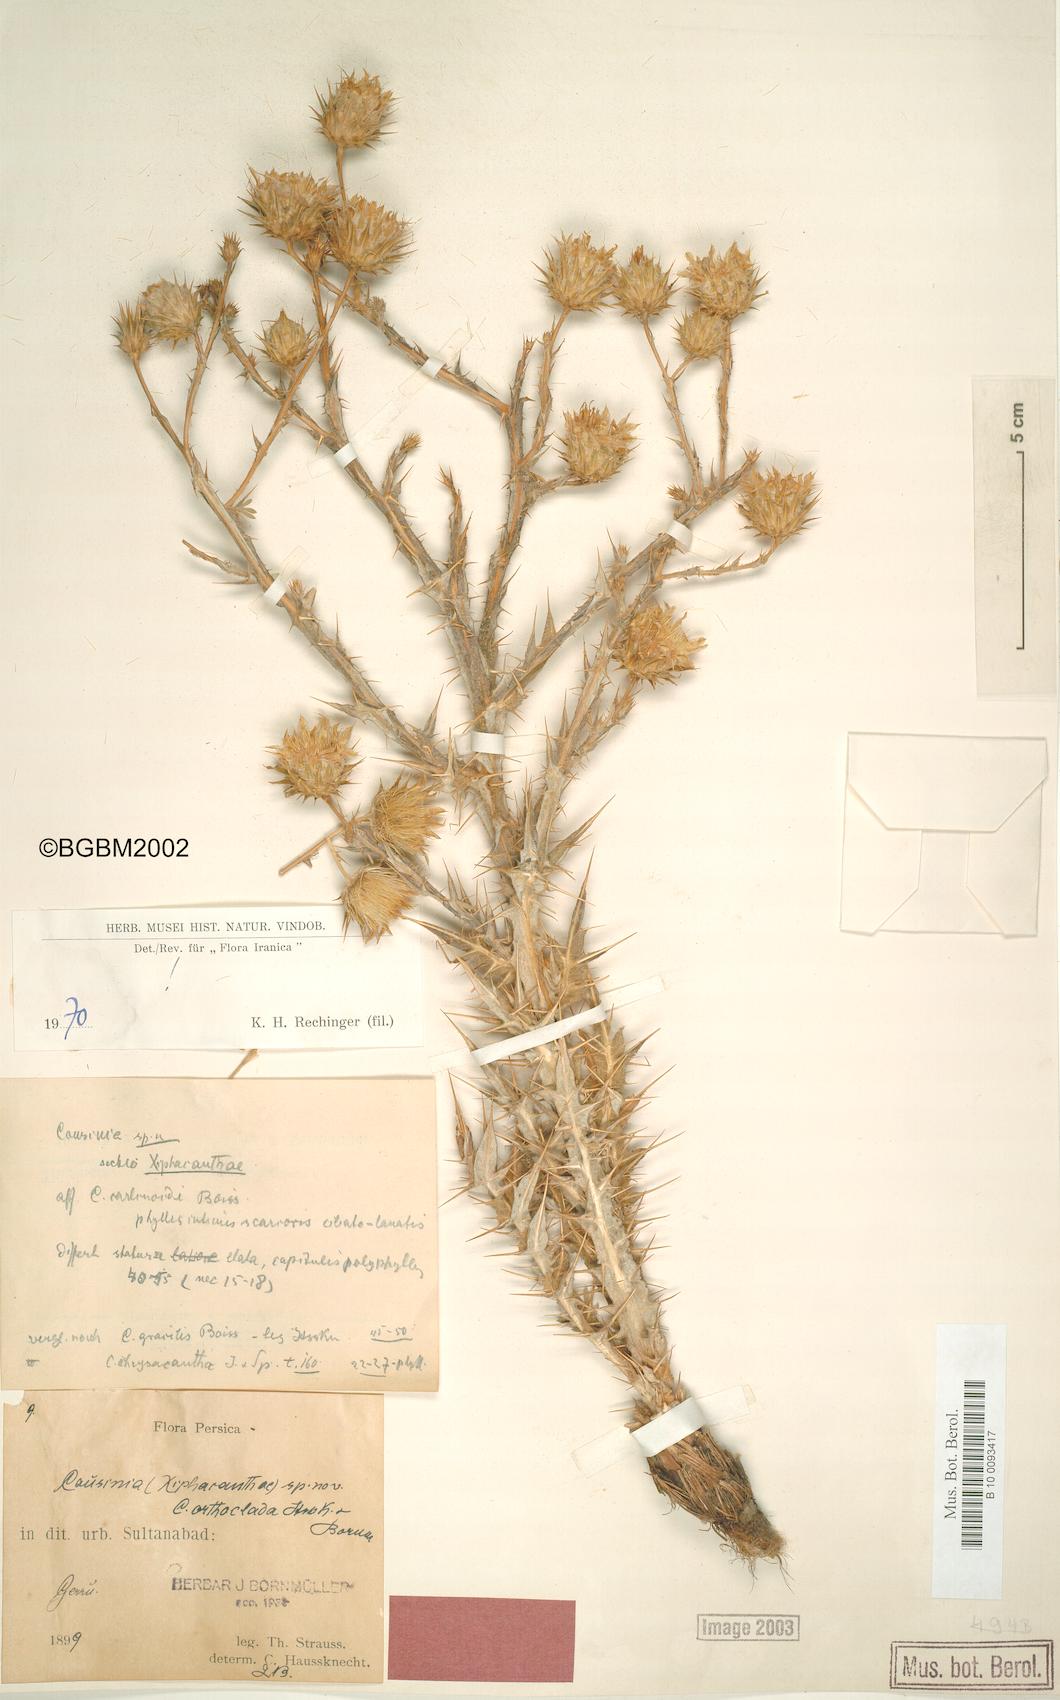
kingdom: Plantae
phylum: Tracheophyta
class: Magnoliopsida
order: Asterales
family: Asteraceae
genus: Cousinia
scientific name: Cousinia orthoclada
